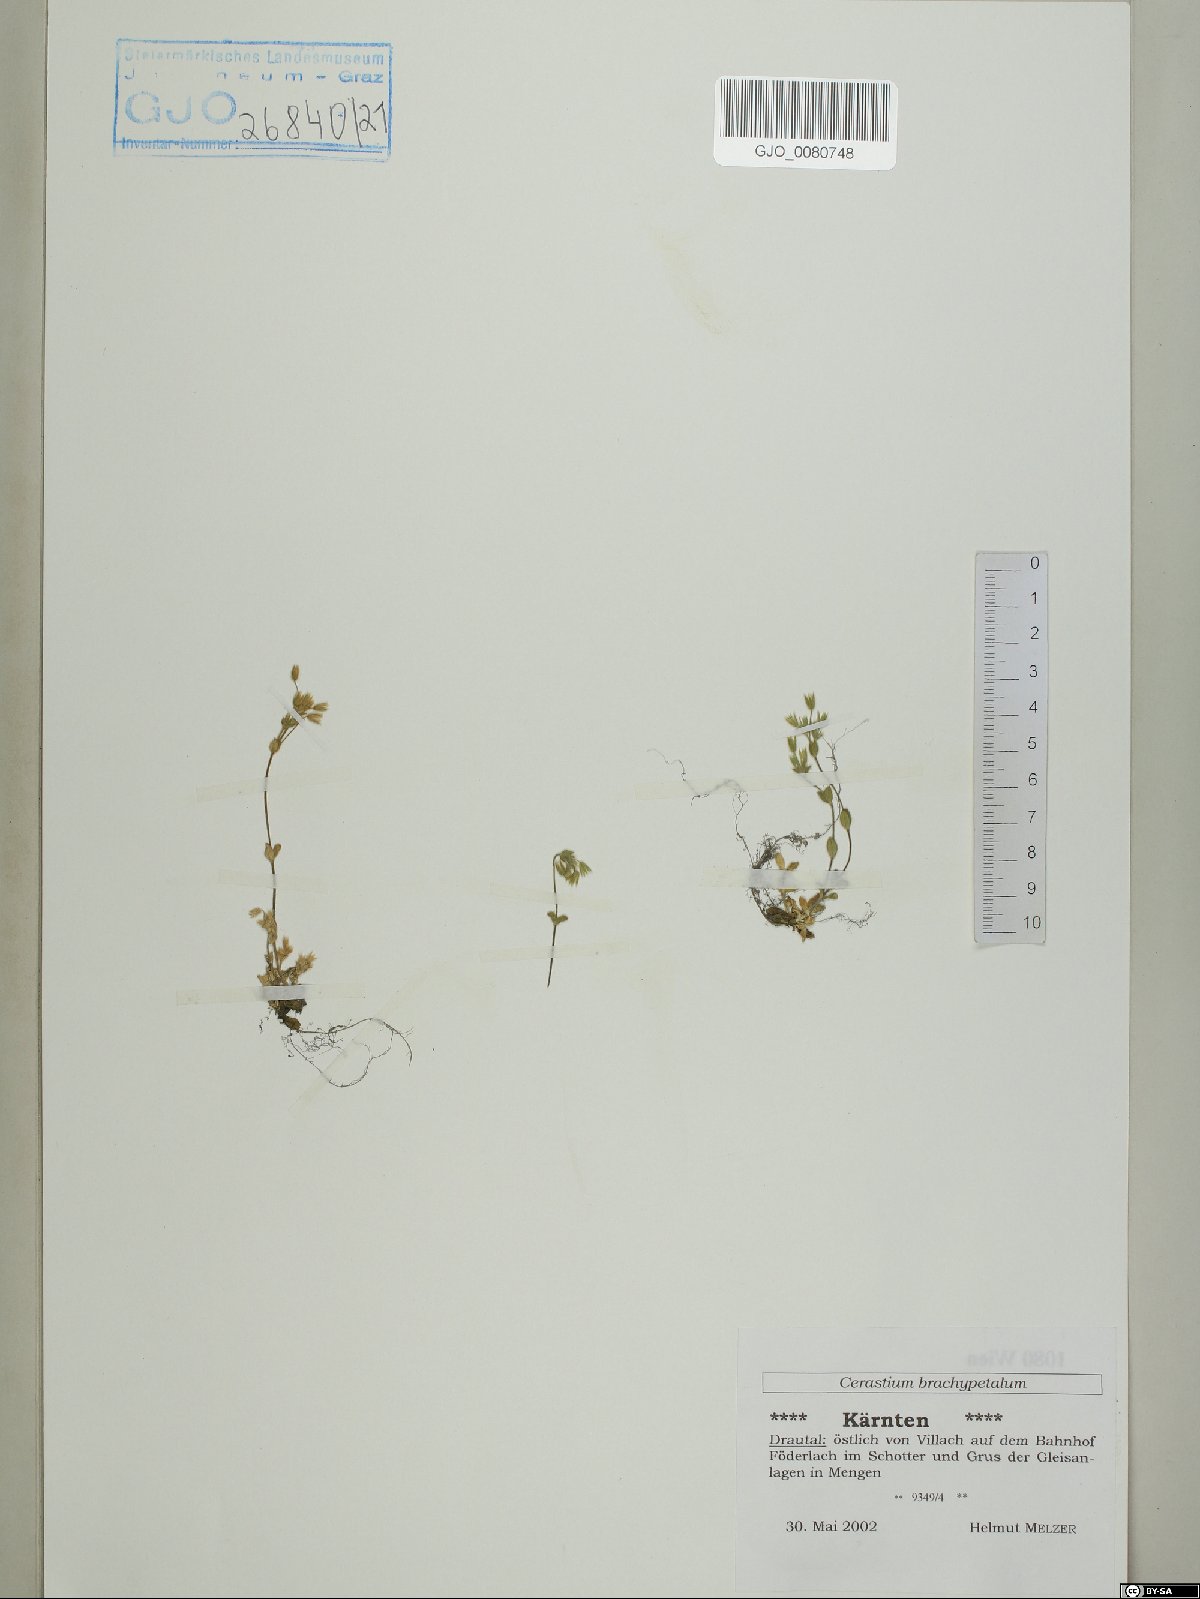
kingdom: Plantae
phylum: Tracheophyta
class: Magnoliopsida
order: Caryophyllales
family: Caryophyllaceae
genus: Cerastium
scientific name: Cerastium brachypetalum
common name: Grey mouse-ear
